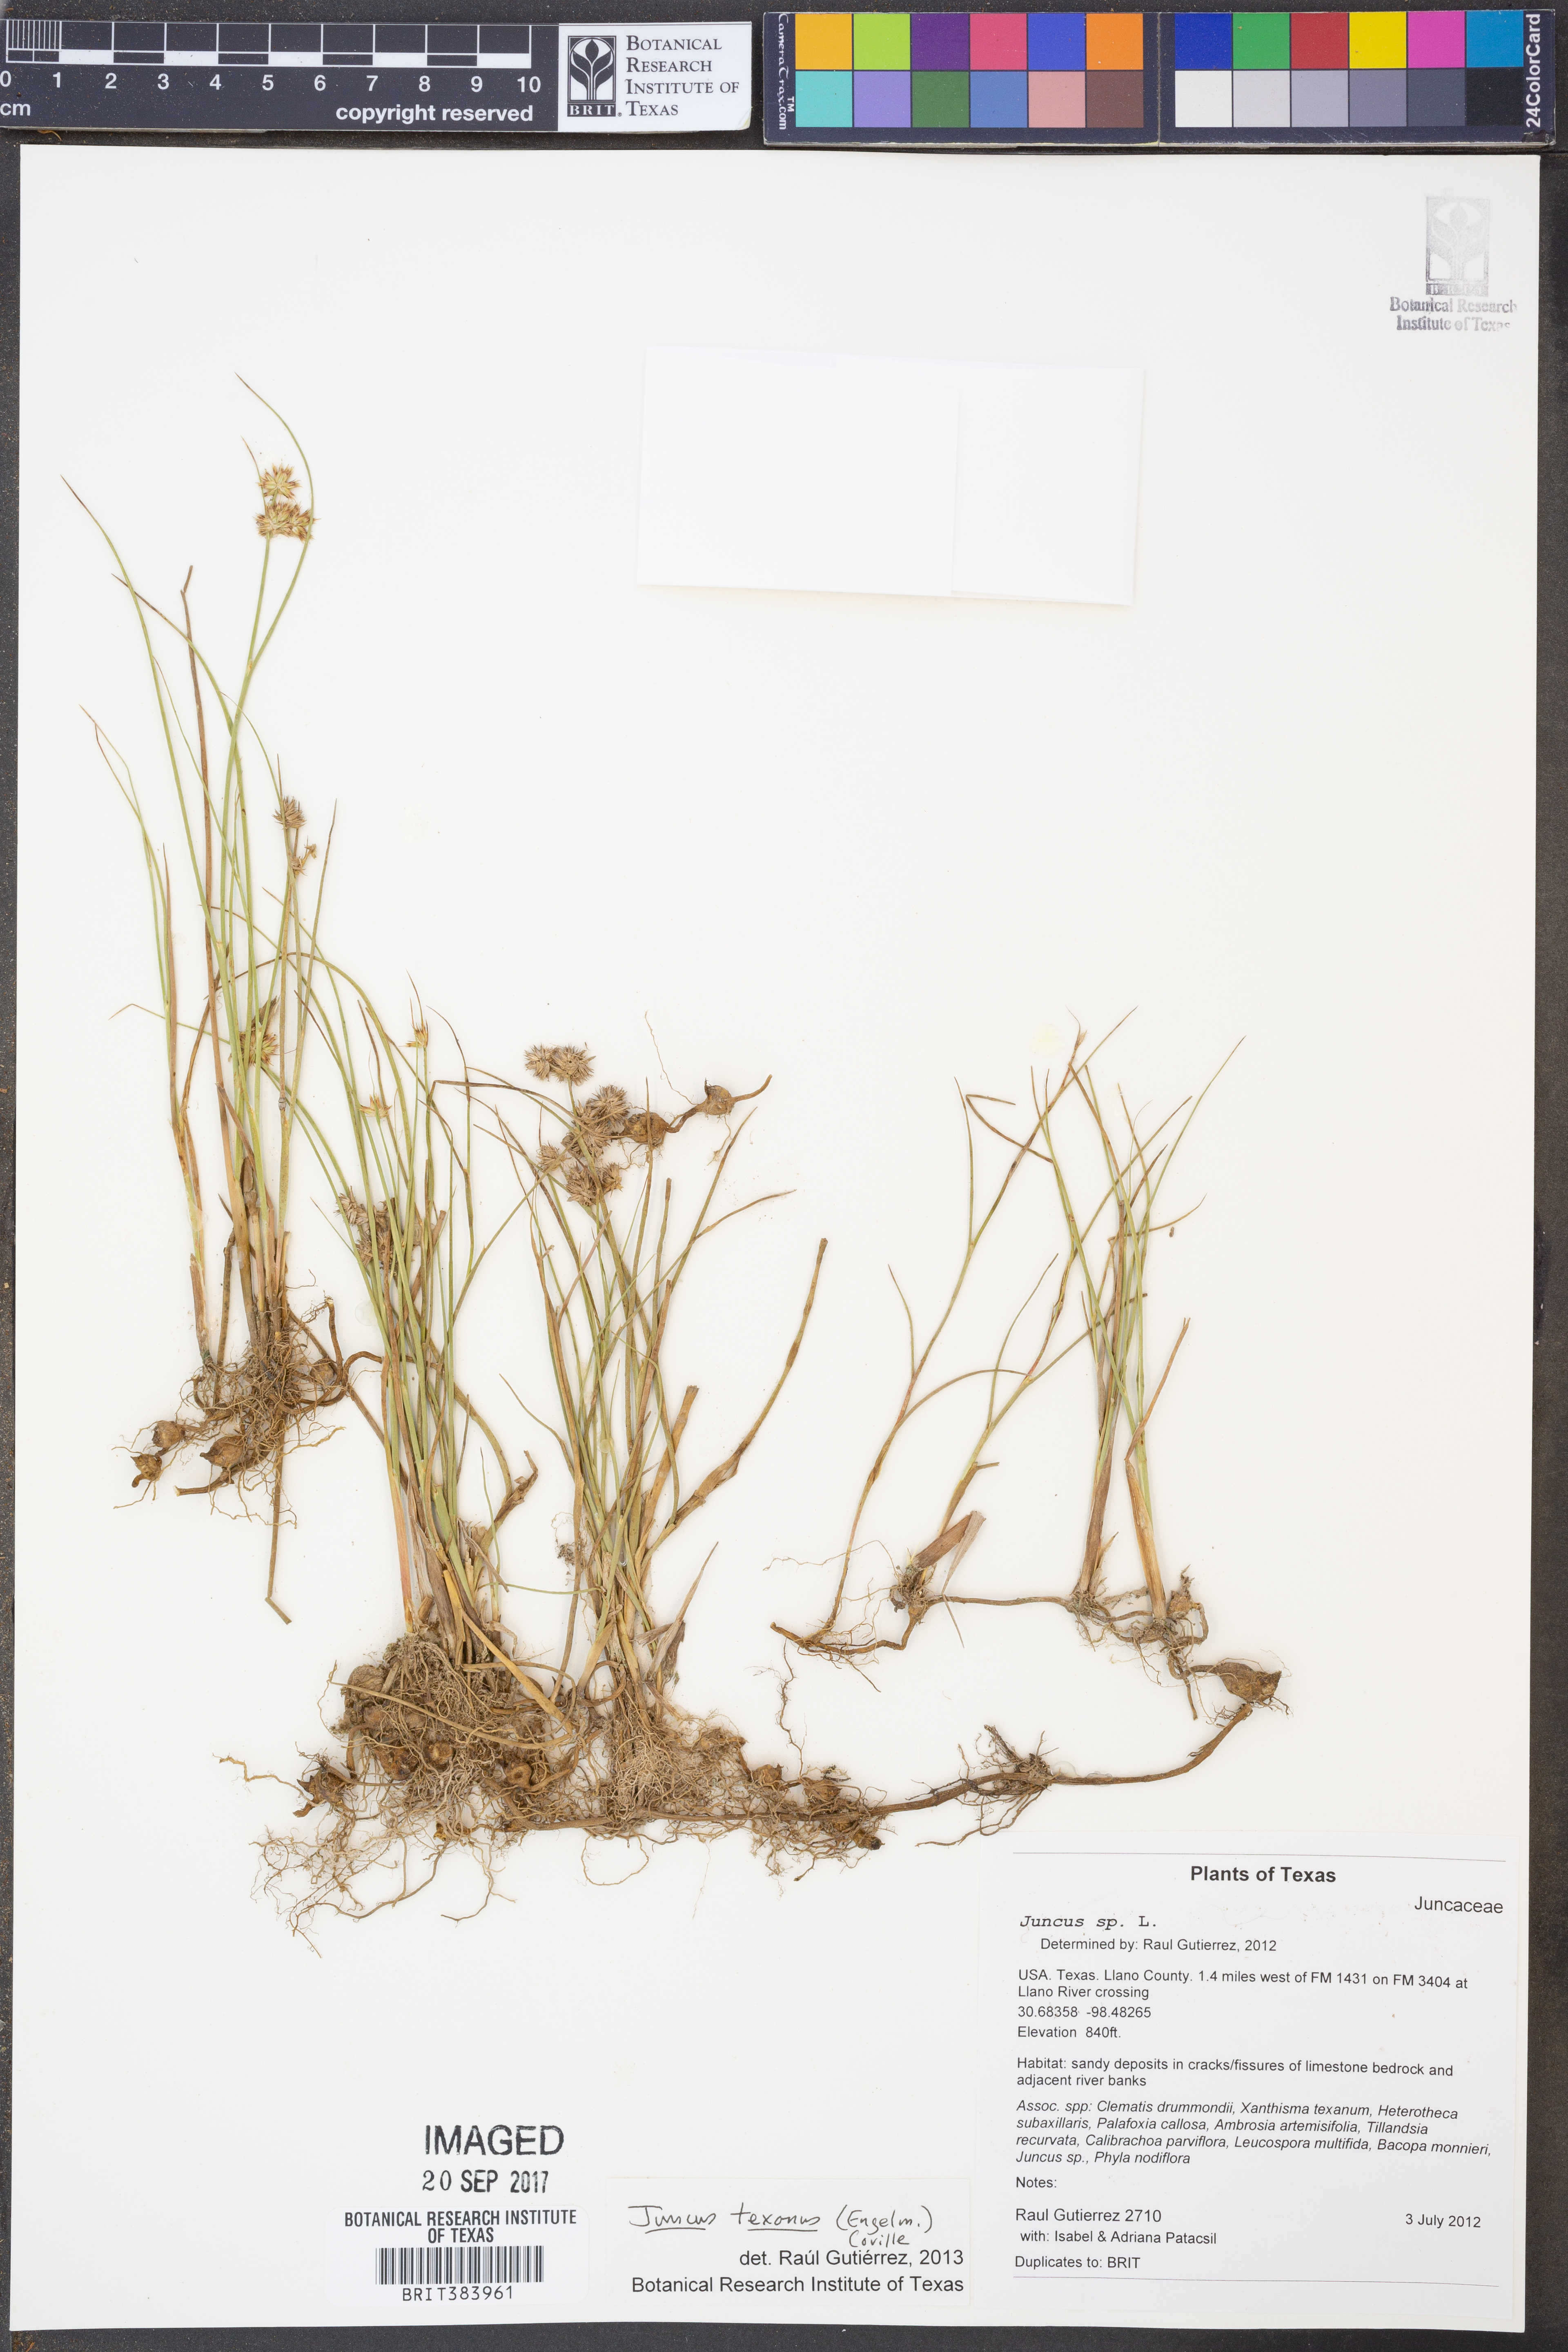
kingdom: Plantae
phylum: Tracheophyta
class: Liliopsida
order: Poales
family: Juncaceae
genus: Juncus
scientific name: Juncus texanus
